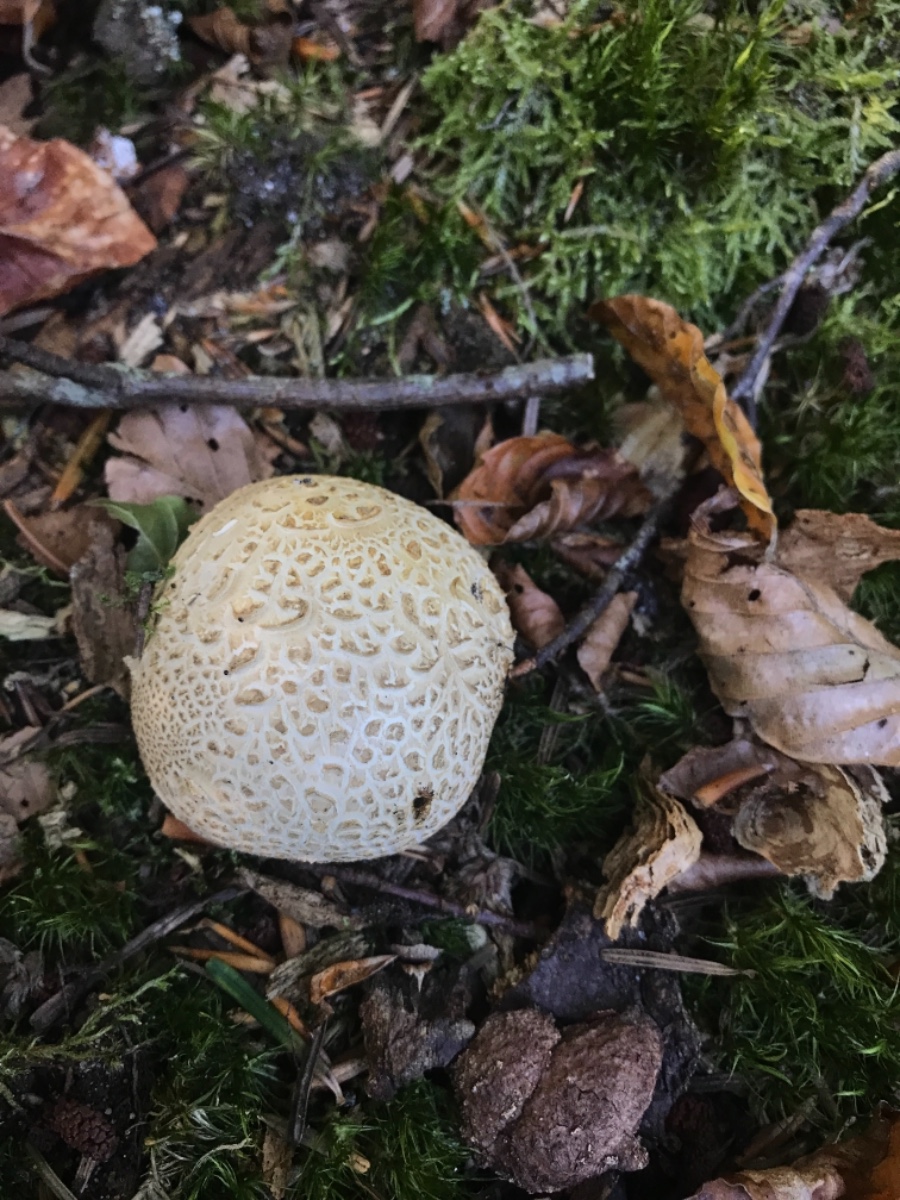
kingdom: Fungi
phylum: Basidiomycota
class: Agaricomycetes
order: Boletales
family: Sclerodermataceae
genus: Scleroderma
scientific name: Scleroderma citrinum
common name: almindelig bruskbold
